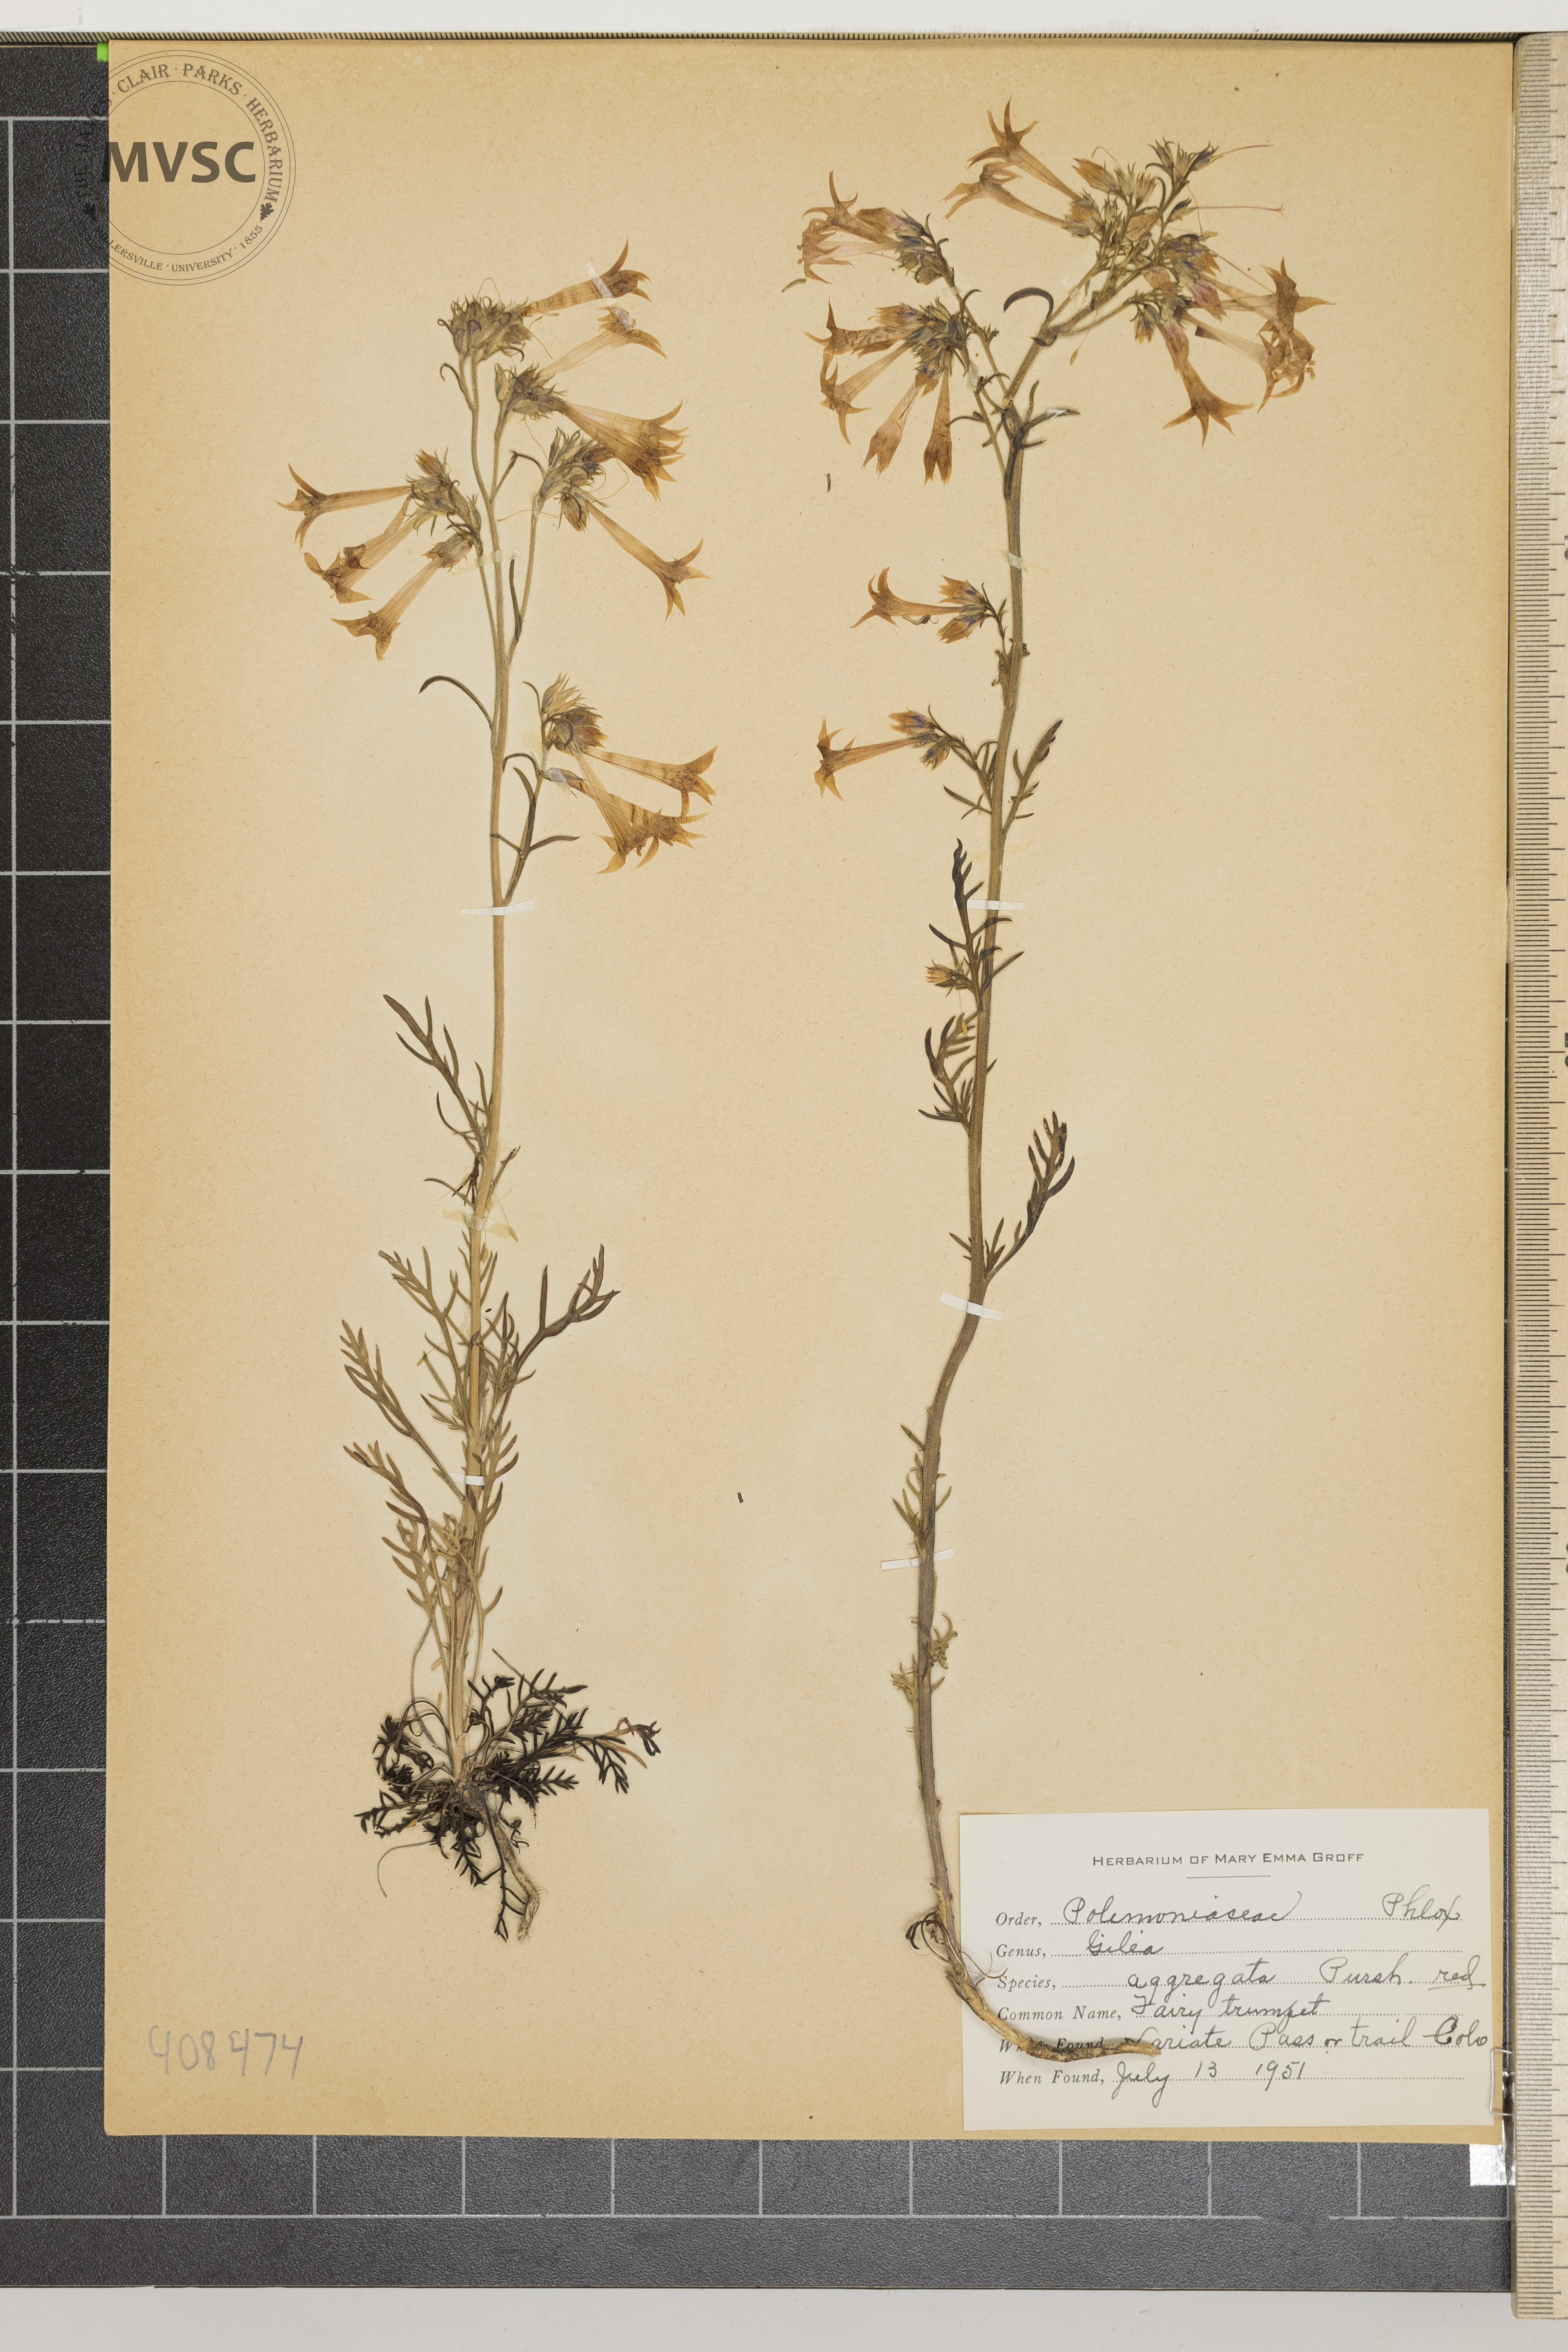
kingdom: Plantae
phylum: Tracheophyta
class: Magnoliopsida
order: Ericales
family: Polemoniaceae
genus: Ipomopsis
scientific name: Ipomopsis aggregata
